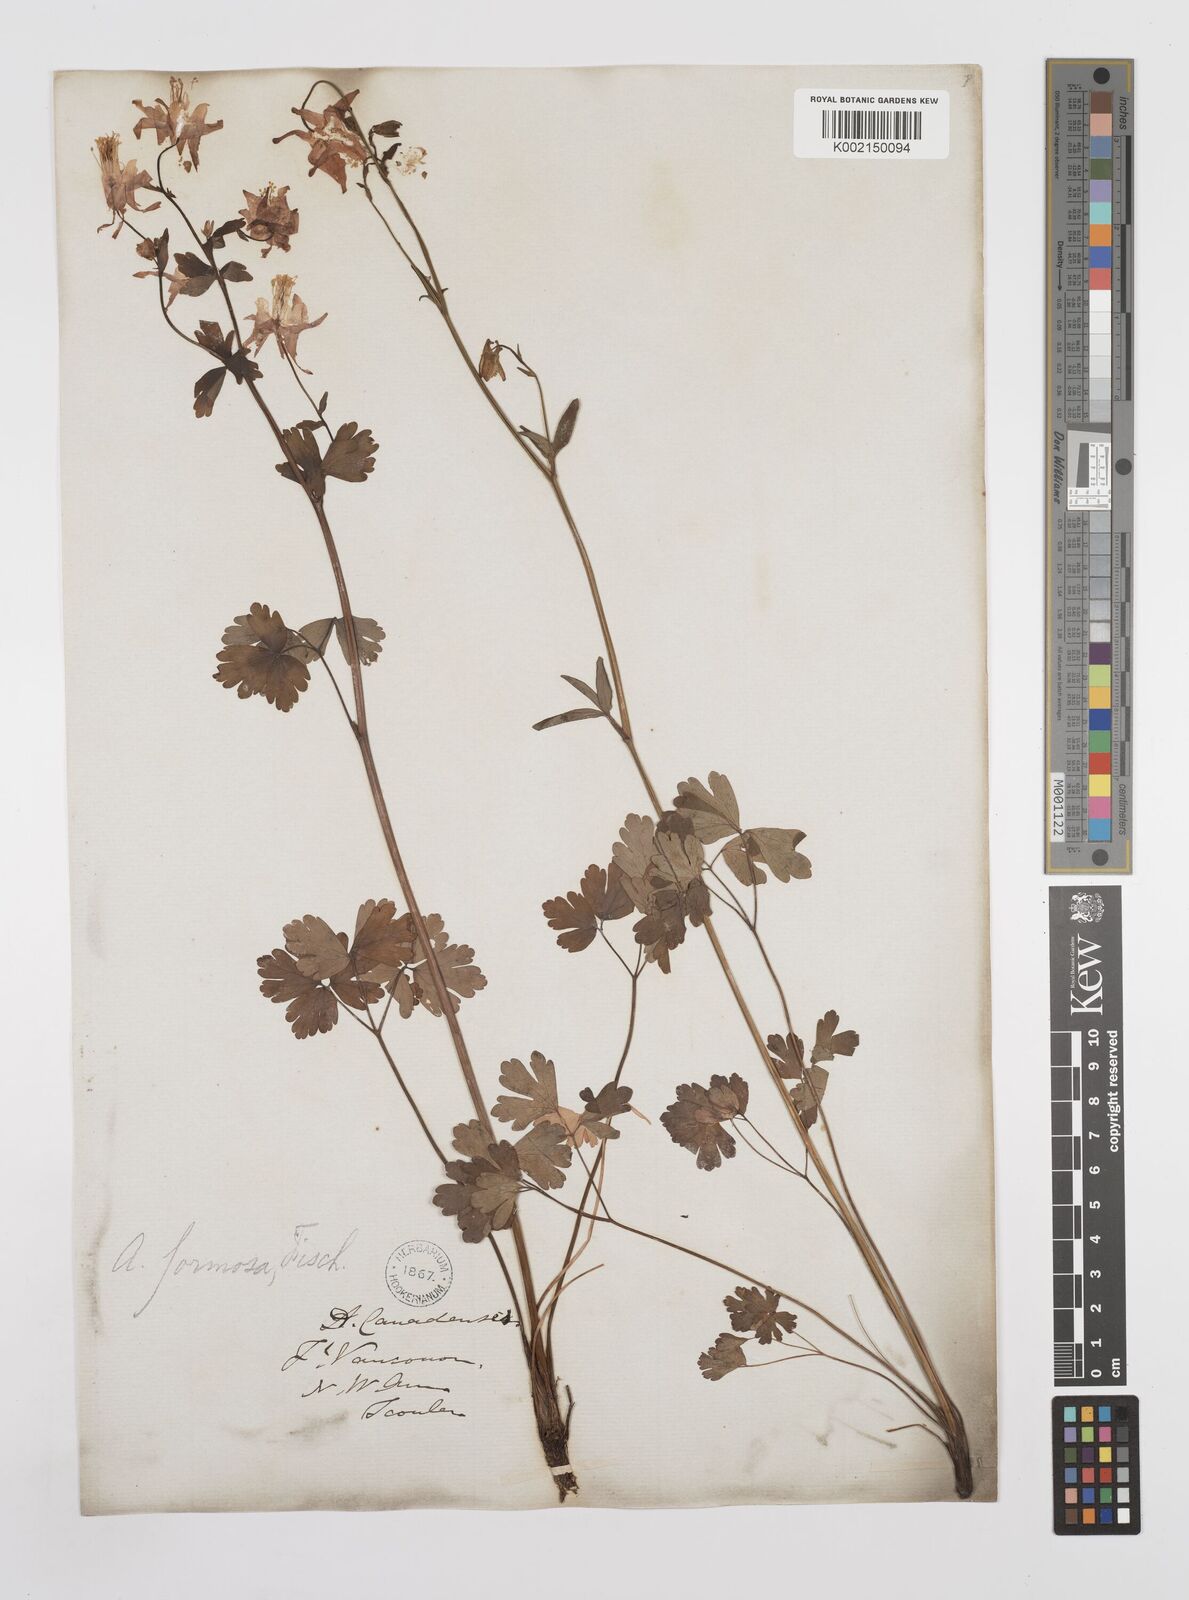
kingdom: Plantae
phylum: Tracheophyta
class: Magnoliopsida
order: Ranunculales
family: Ranunculaceae
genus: Aquilegia
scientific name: Aquilegia
